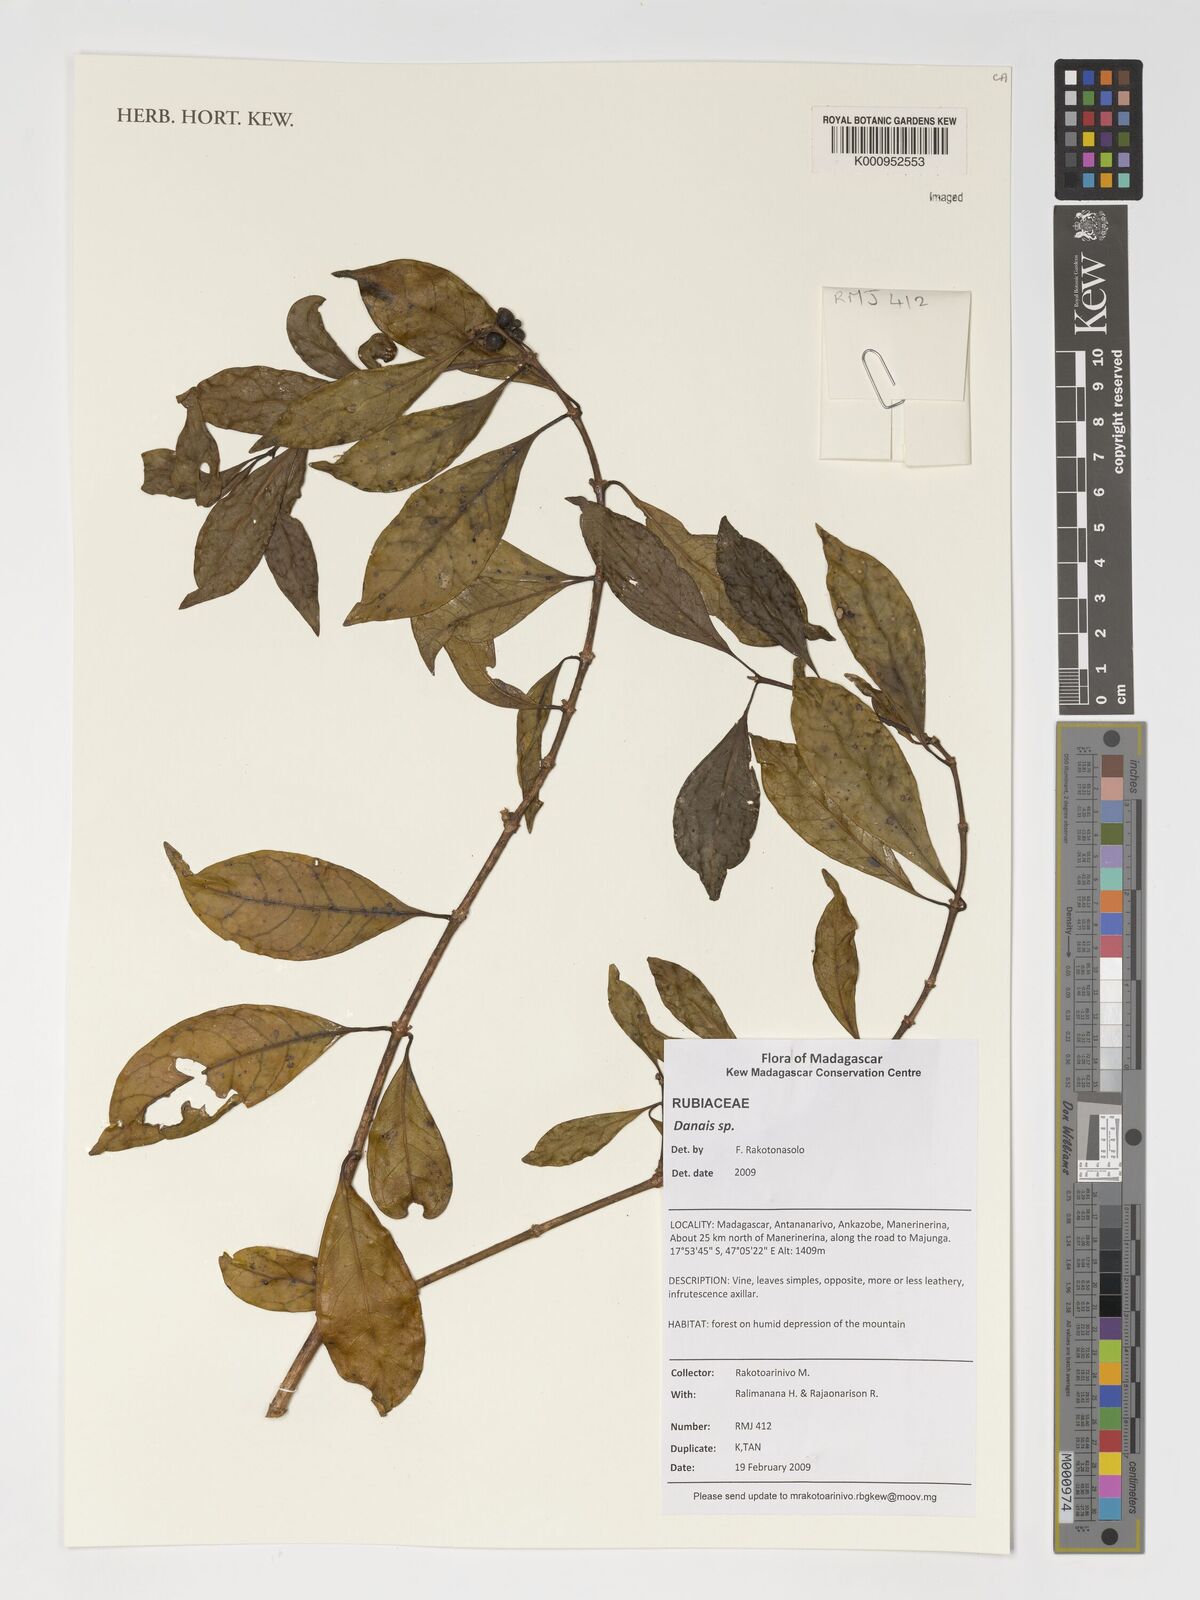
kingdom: Plantae
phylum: Tracheophyta
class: Magnoliopsida
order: Gentianales
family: Rubiaceae
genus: Danais
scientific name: Danais
